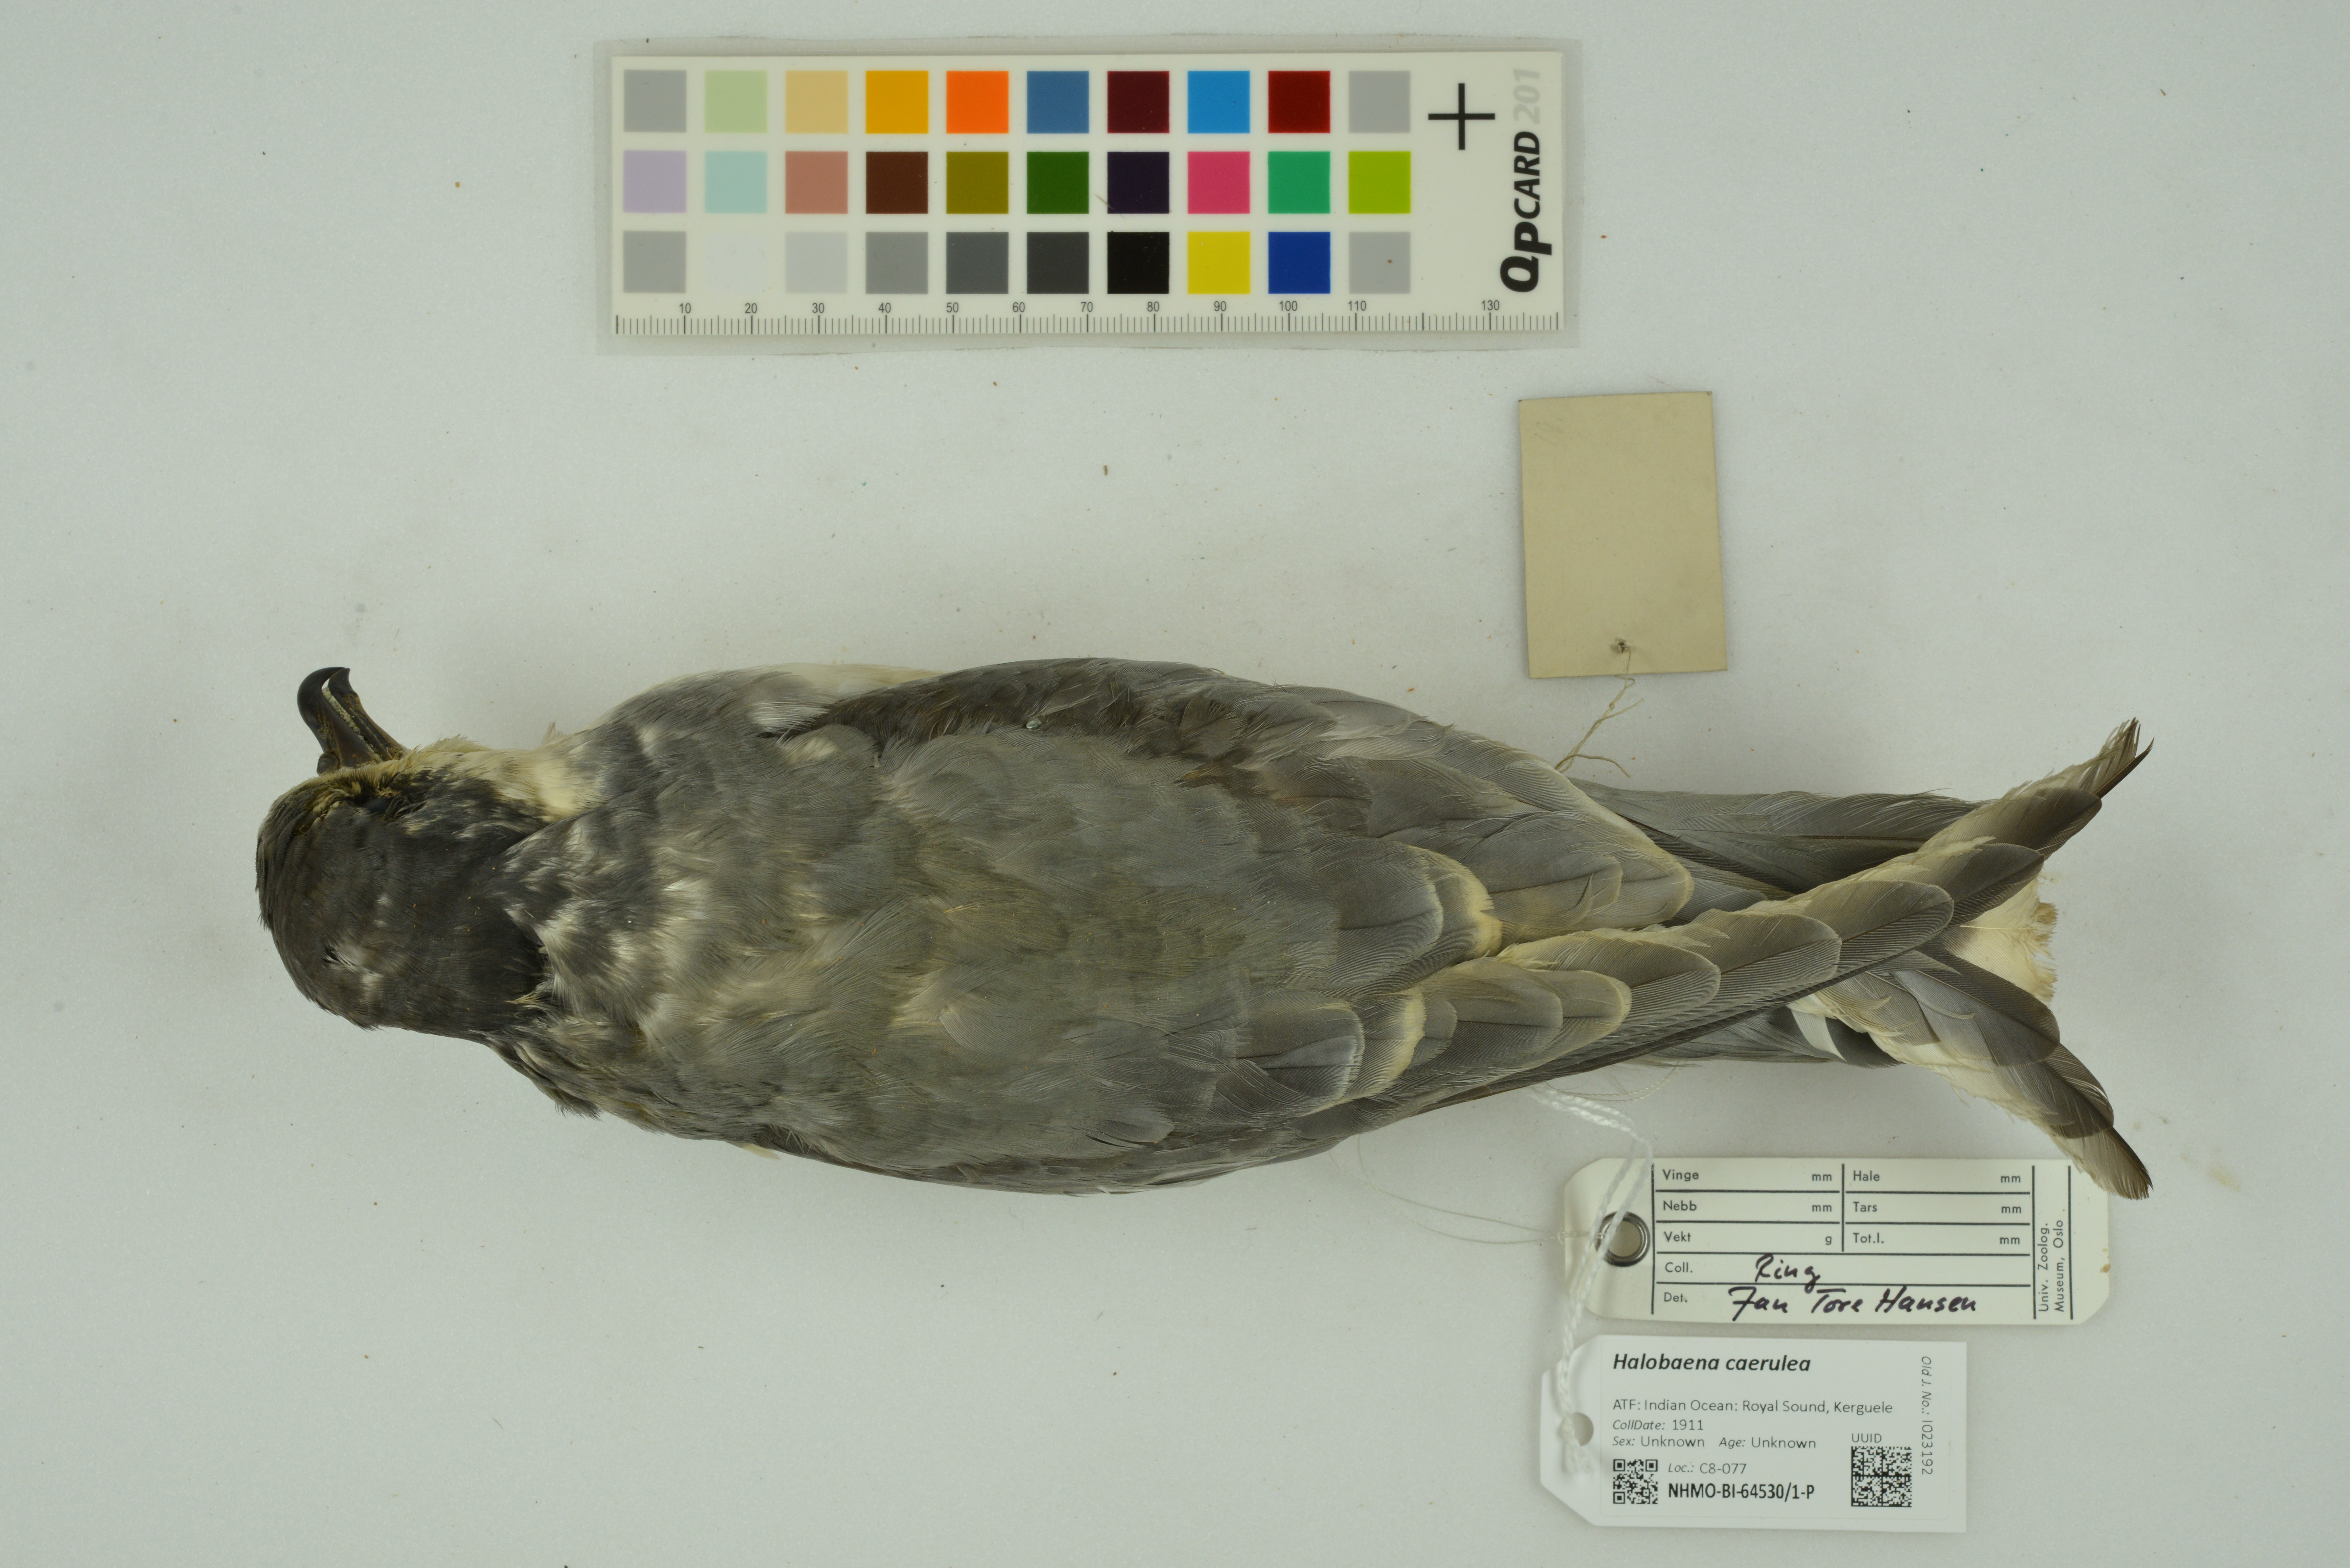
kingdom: Animalia
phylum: Chordata
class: Aves
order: Procellariiformes
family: Procellariidae
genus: Halobaena
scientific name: Halobaena caerulea
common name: Blue petrel
